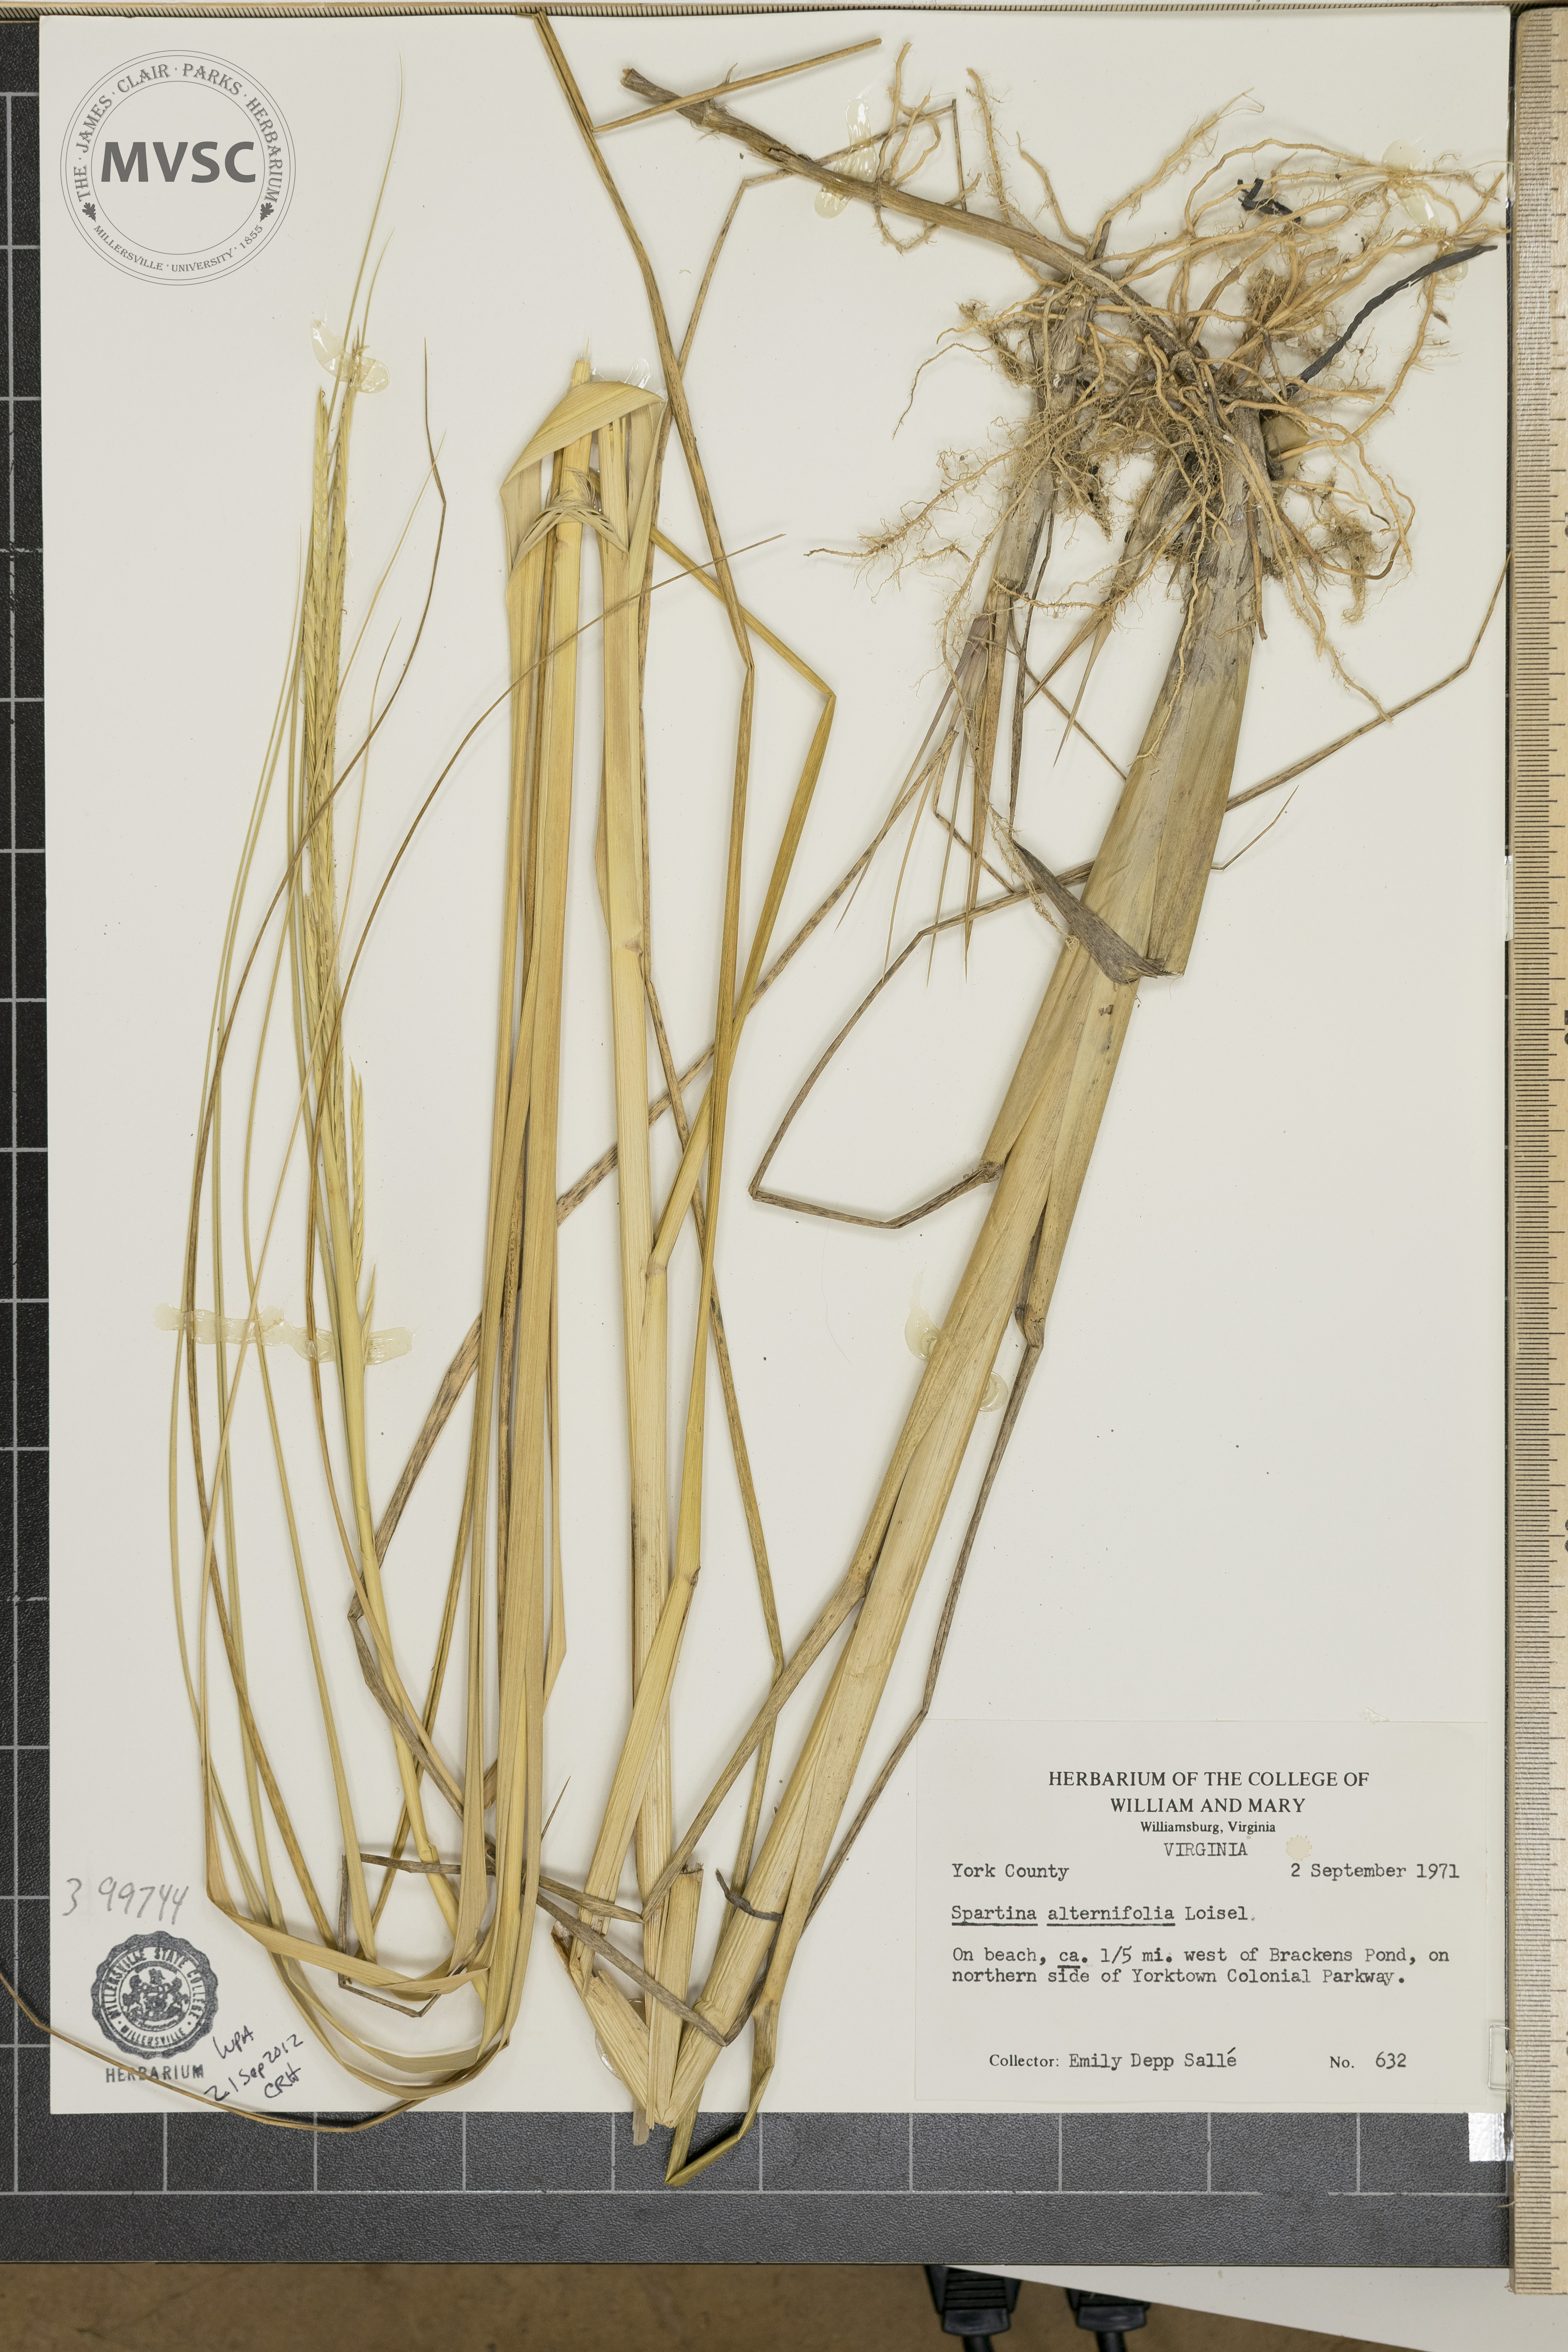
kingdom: Plantae
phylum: Tracheophyta
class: Liliopsida
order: Poales
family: Poaceae
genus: Sporobolus
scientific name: Sporobolus alterniflorus
